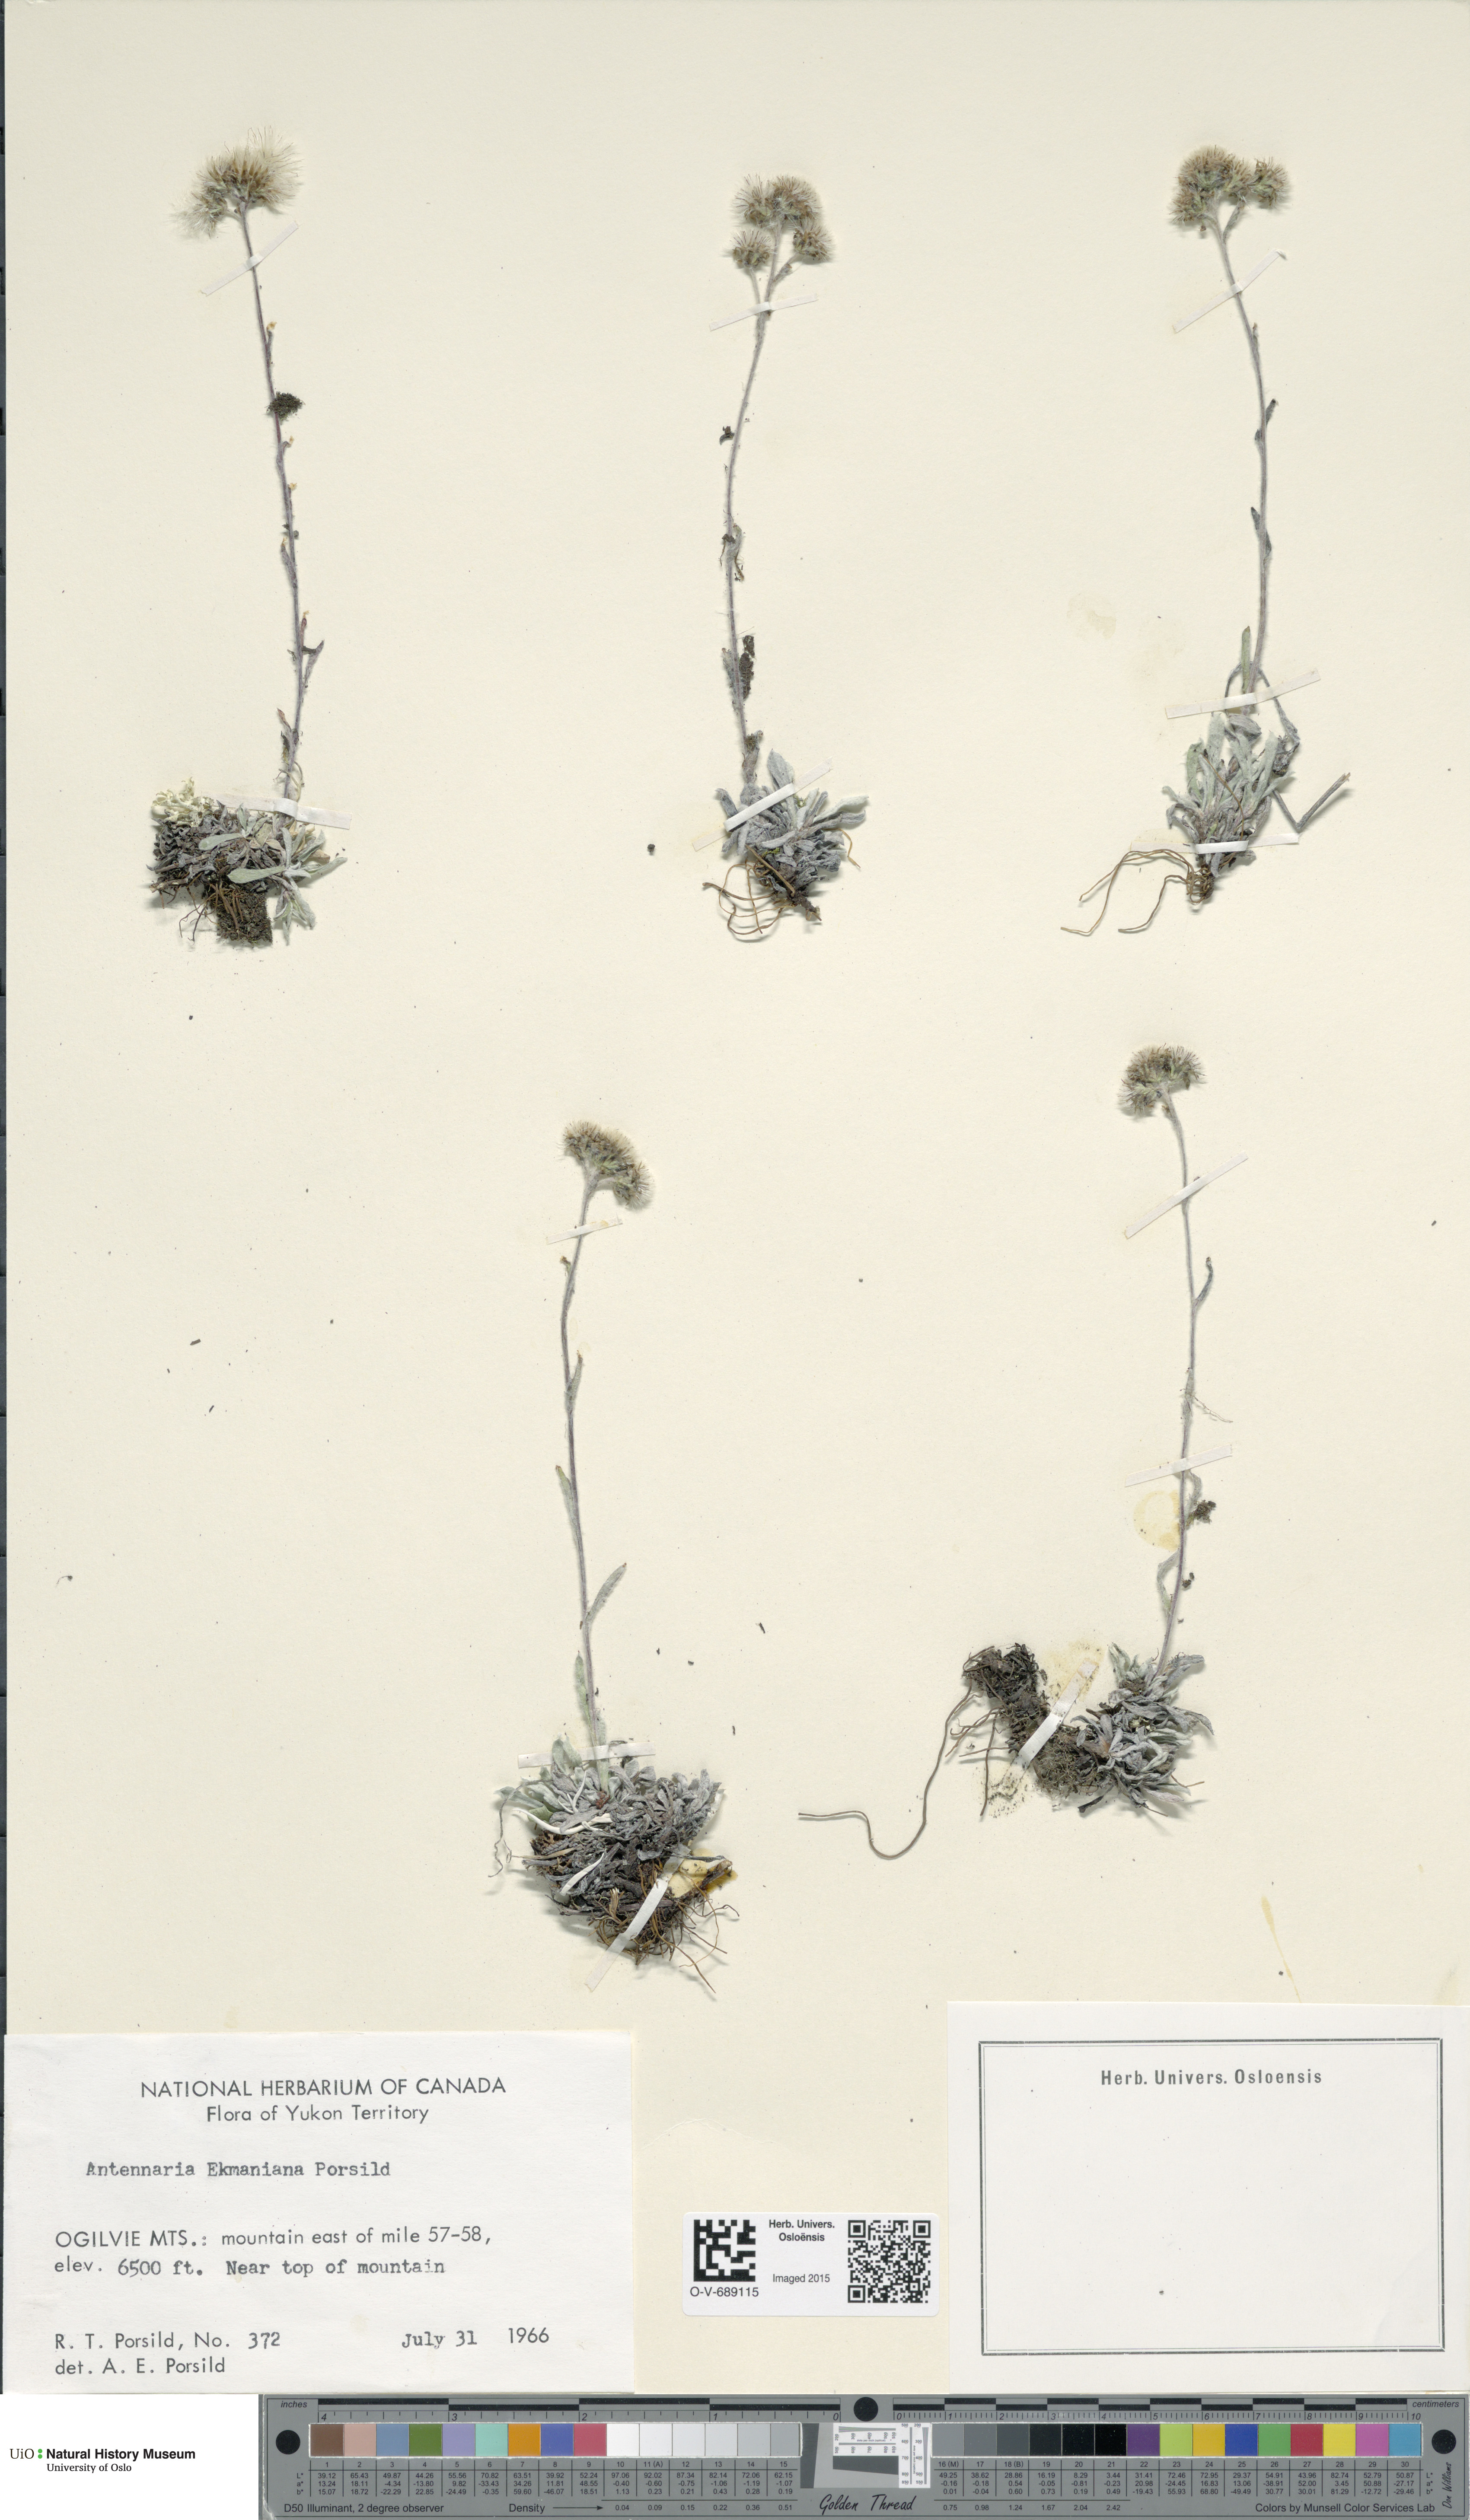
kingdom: Plantae
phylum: Tracheophyta
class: Magnoliopsida
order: Asterales
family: Asteraceae
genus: Antennaria
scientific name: Antennaria friesiana
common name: Fries' pussytoes
